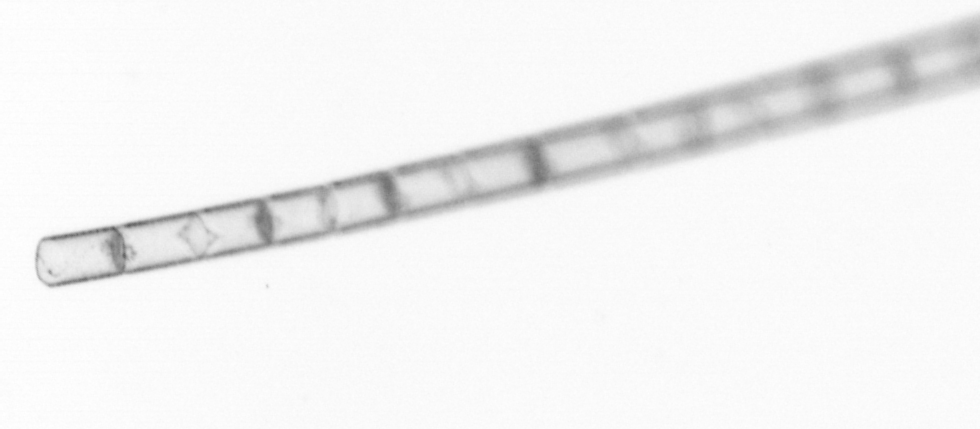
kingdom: Chromista
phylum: Ochrophyta
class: Bacillariophyceae
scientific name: Bacillariophyceae
